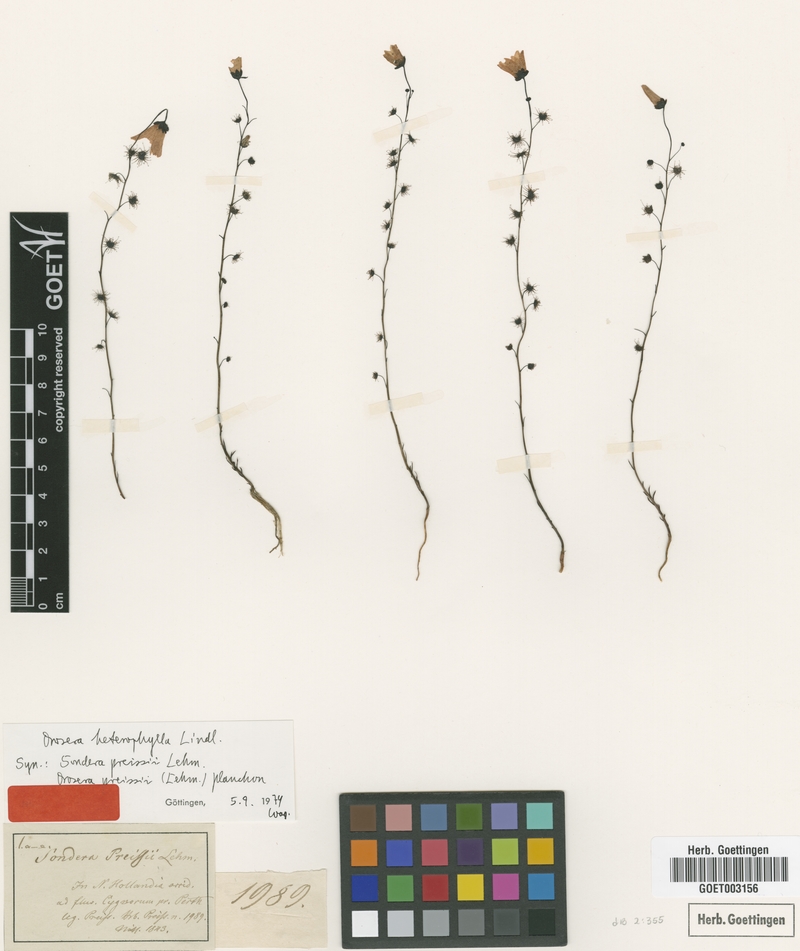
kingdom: Plantae
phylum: Tracheophyta
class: Magnoliopsida
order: Caryophyllales
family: Droseraceae
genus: Drosera
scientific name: Drosera heterophylla
